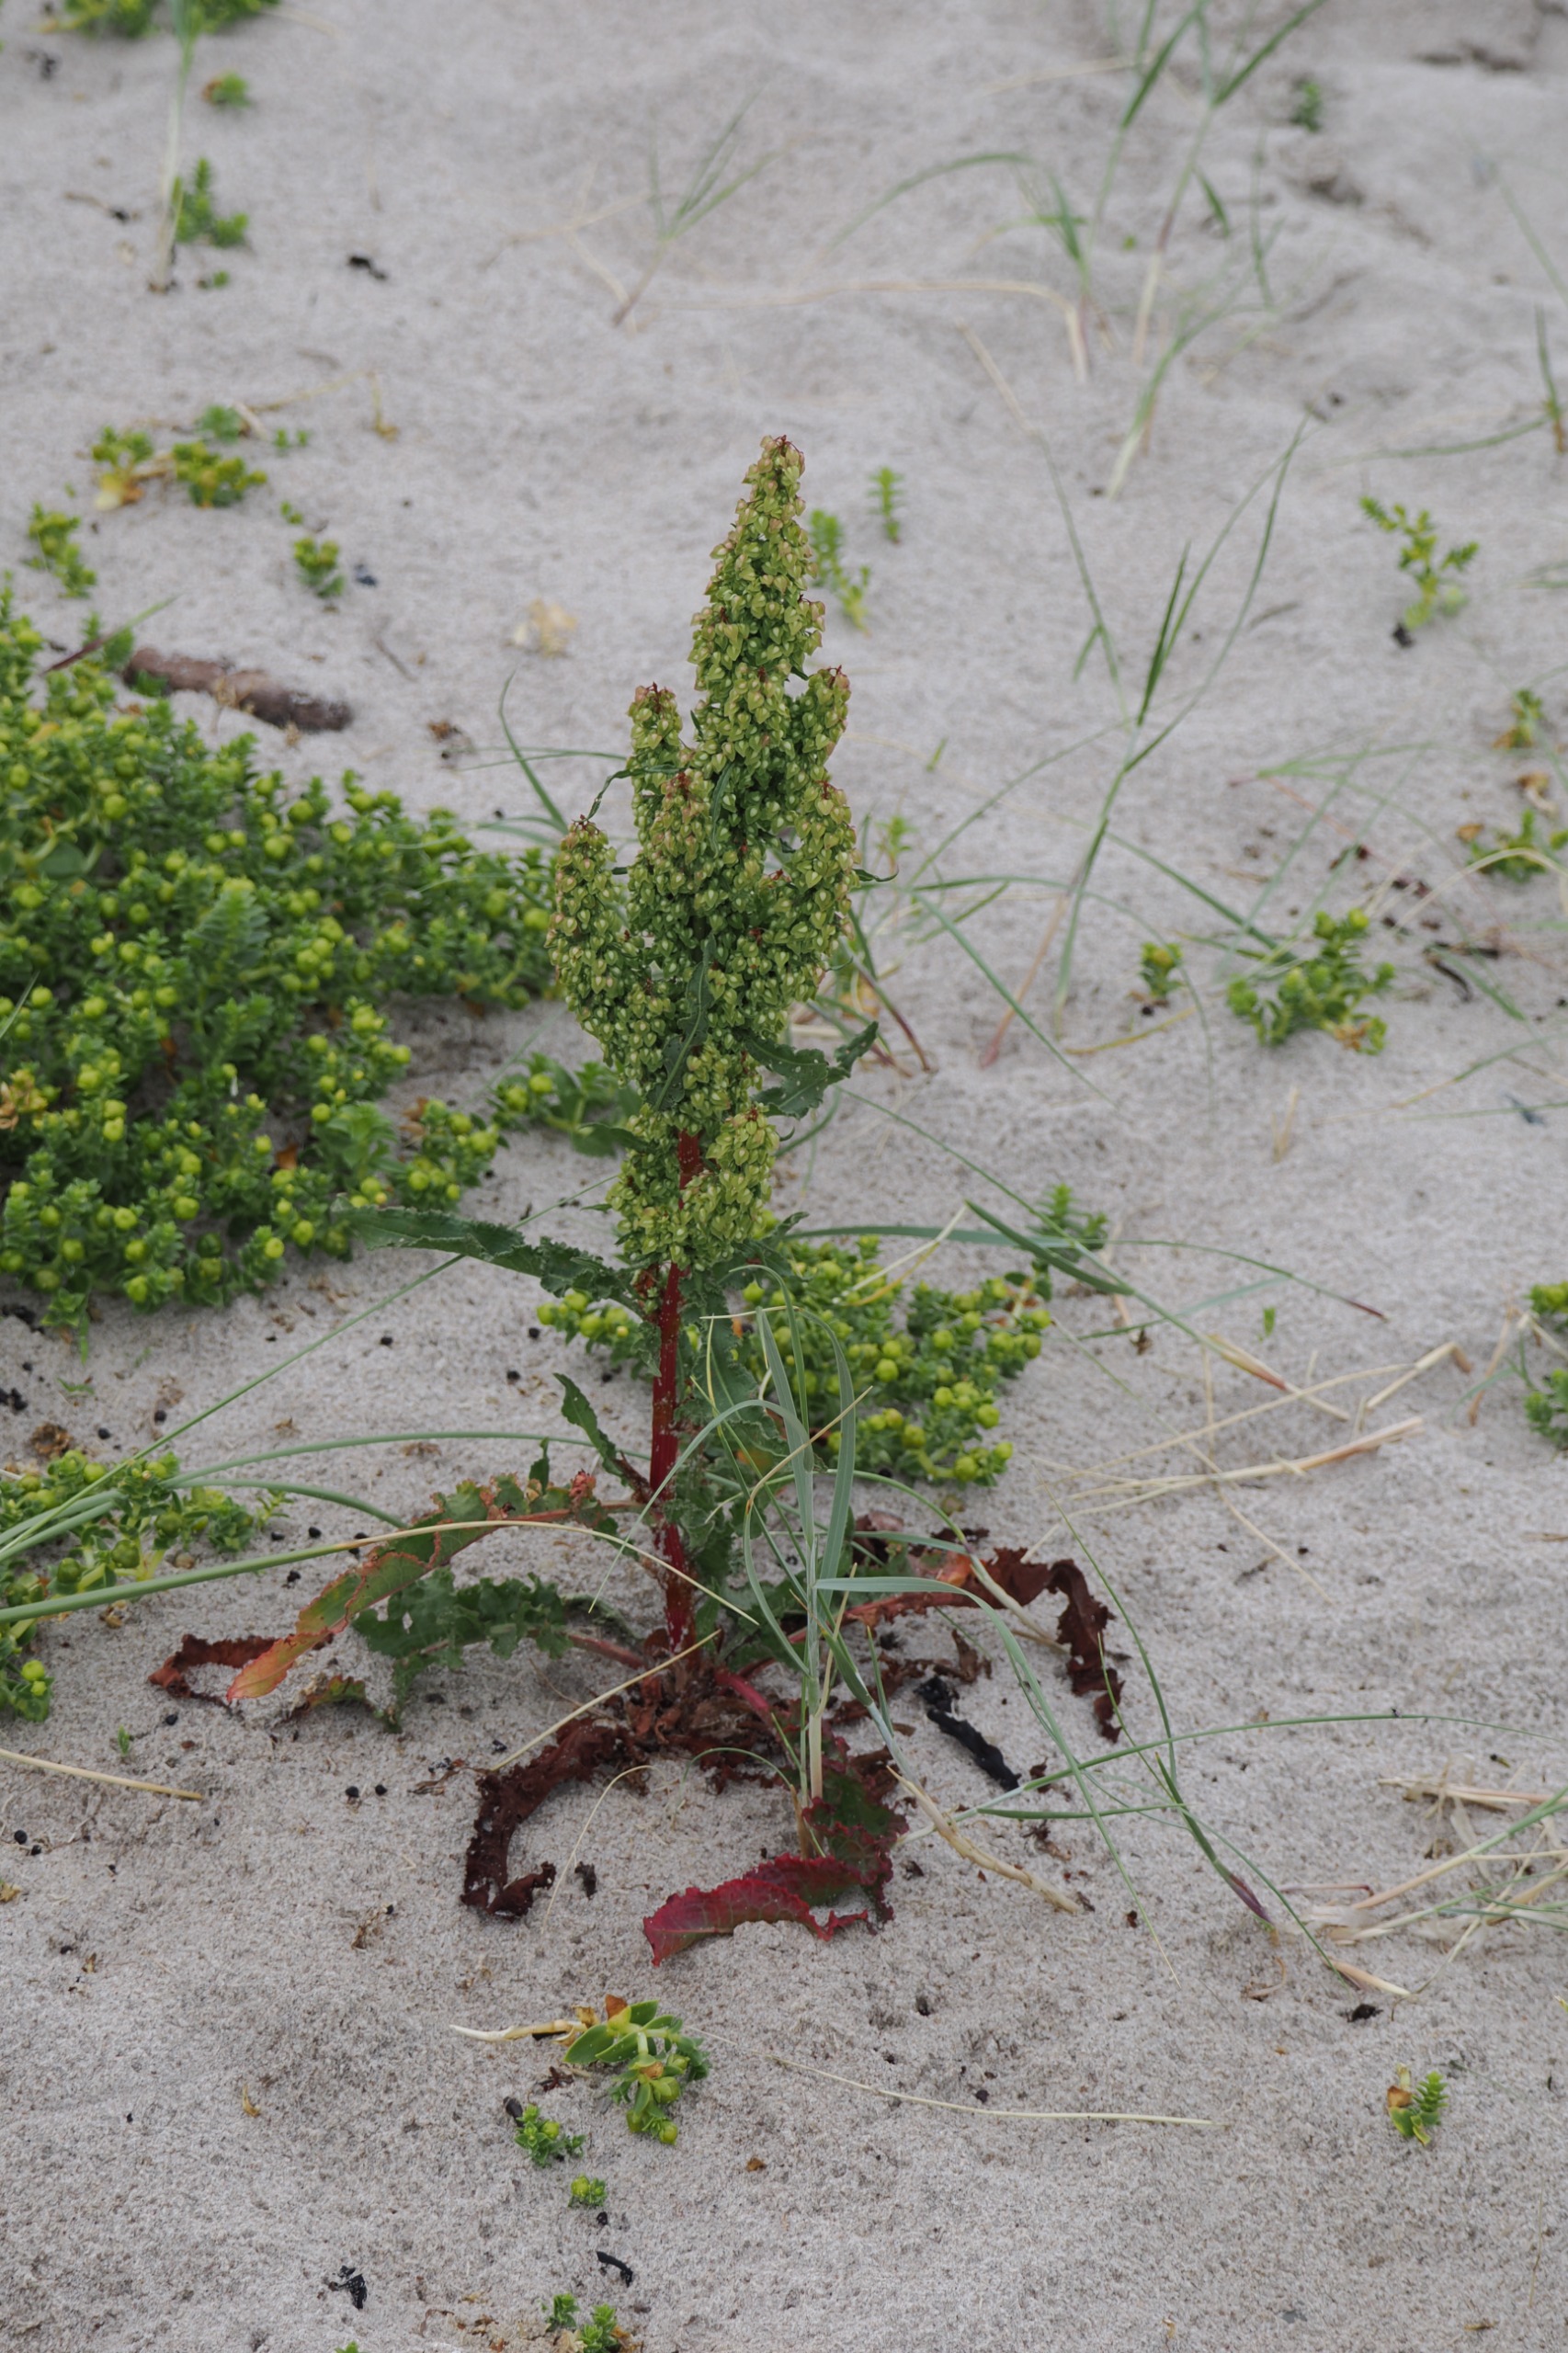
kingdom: Plantae
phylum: Tracheophyta
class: Magnoliopsida
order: Caryophyllales
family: Polygonaceae
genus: Rumex
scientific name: Rumex crispus
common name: Kruset skræppe
